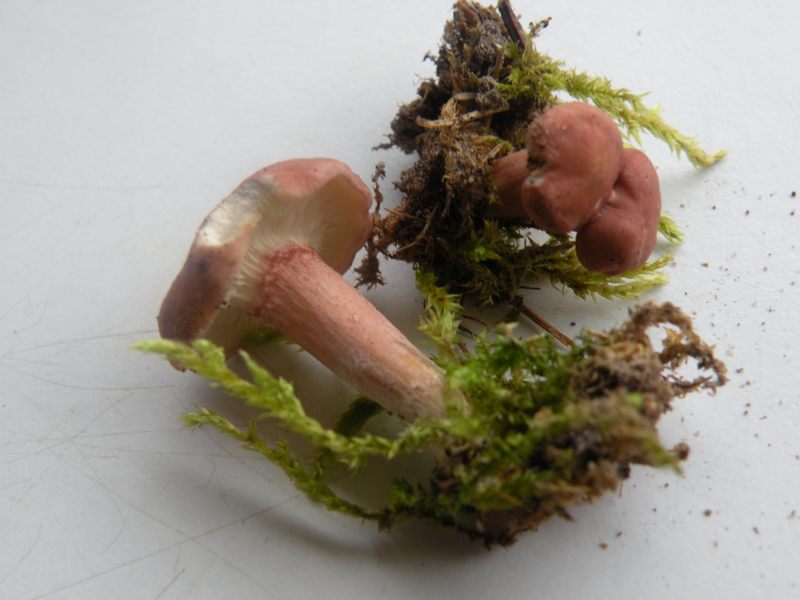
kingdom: Fungi
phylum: Basidiomycota
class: Agaricomycetes
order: Agaricales
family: Lyophyllaceae
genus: Calocybe
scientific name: Calocybe carnea
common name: rosa fagerhat
